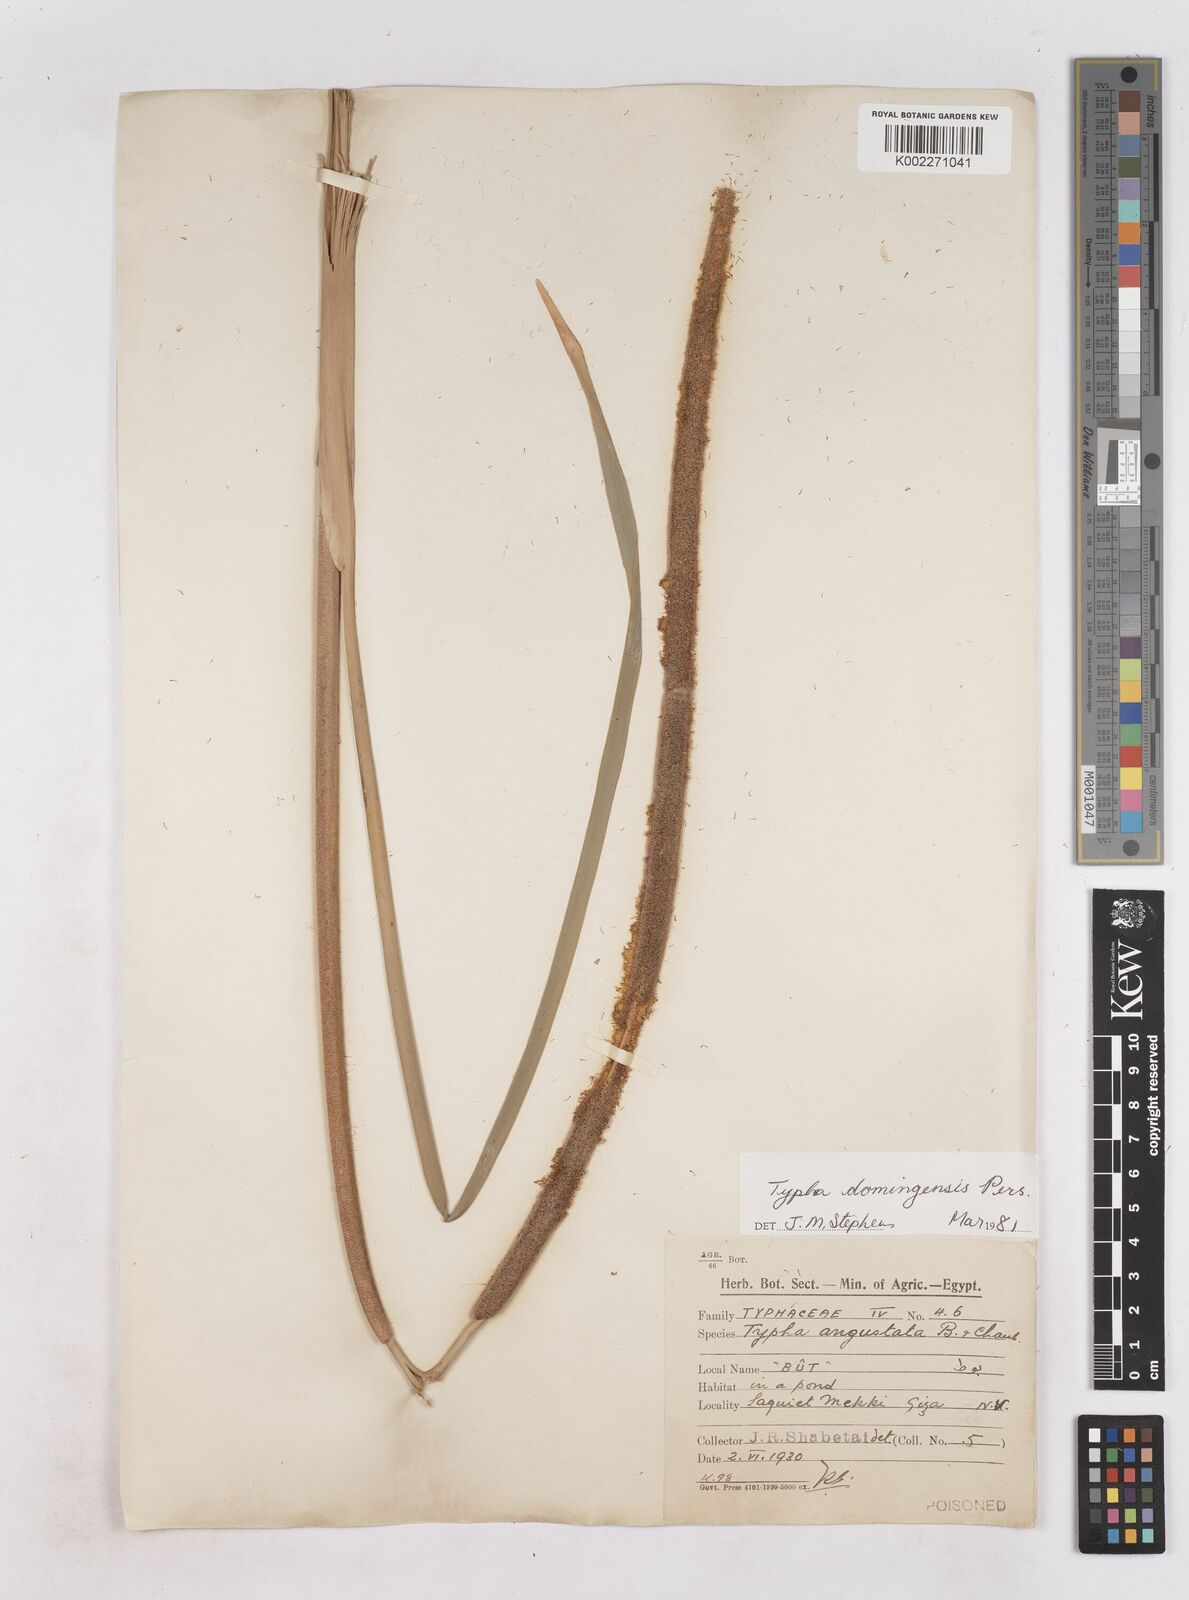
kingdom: Plantae
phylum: Tracheophyta
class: Liliopsida
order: Poales
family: Typhaceae
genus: Typha
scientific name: Typha domingensis
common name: Southern cattail
